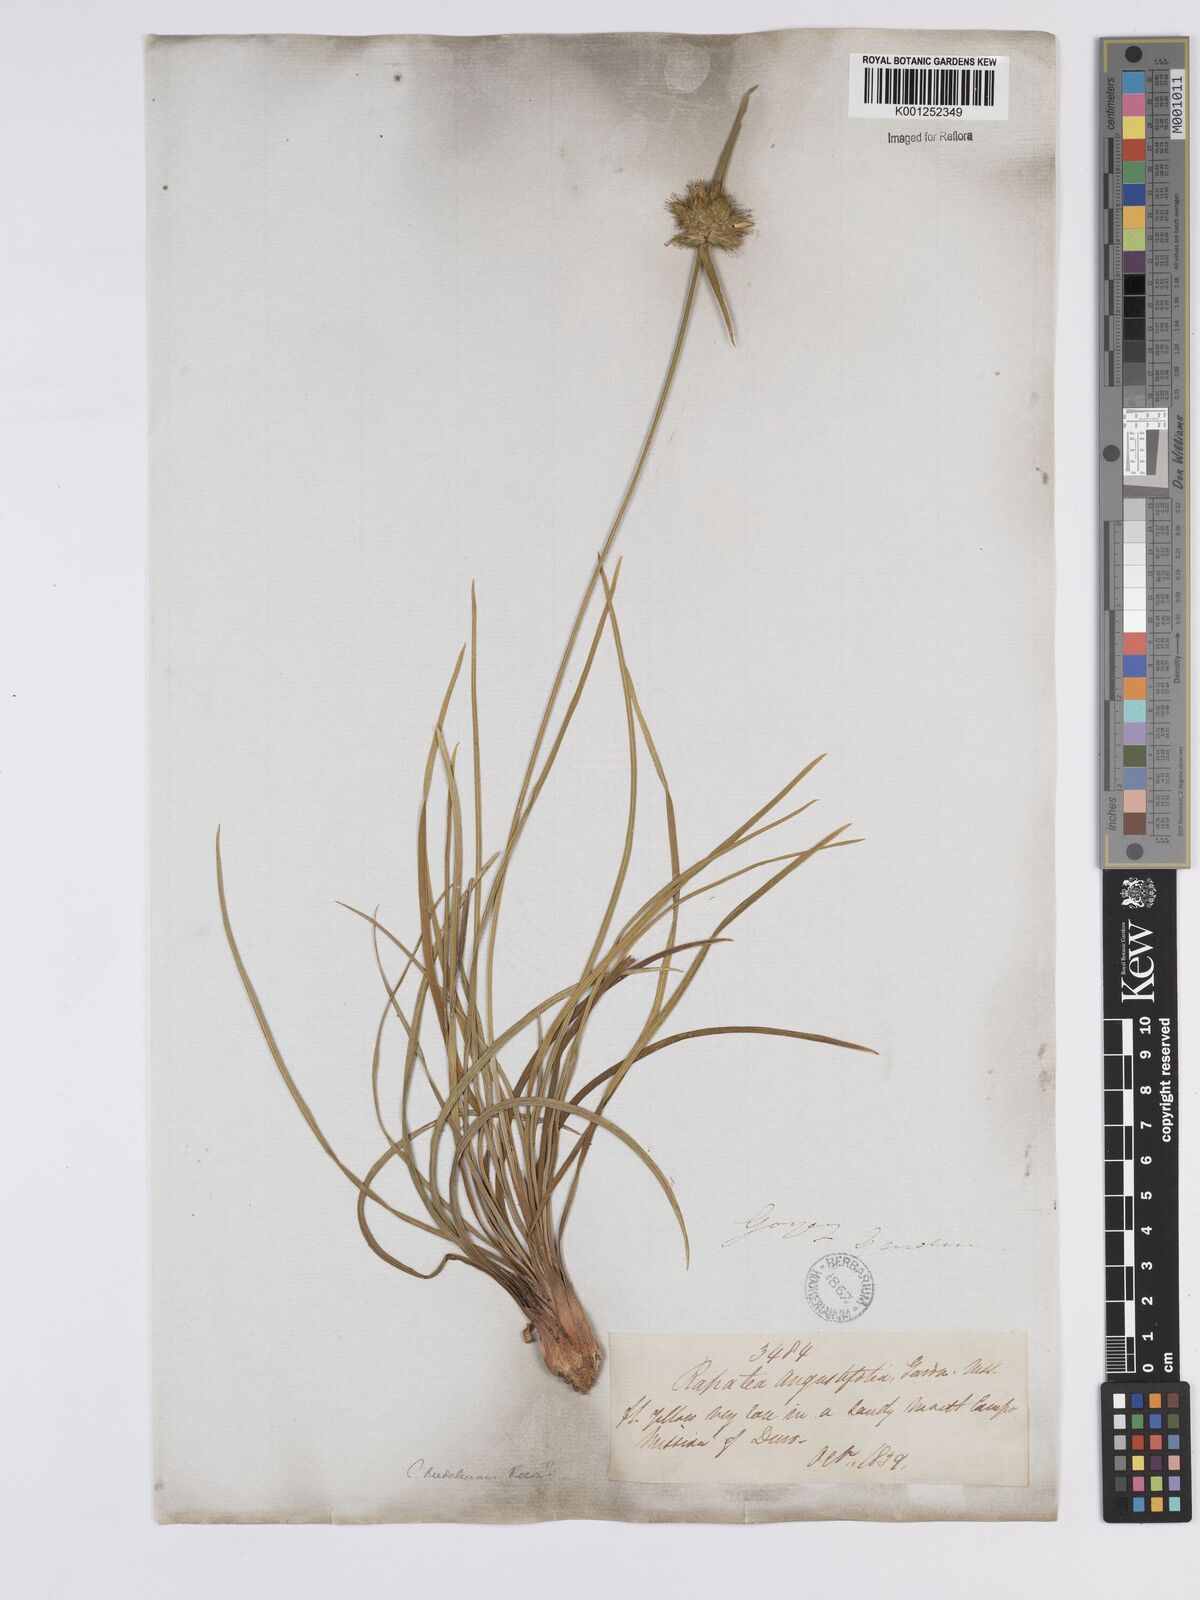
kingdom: Plantae
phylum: Tracheophyta
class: Liliopsida
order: Poales
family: Rapateaceae
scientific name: Rapateaceae
